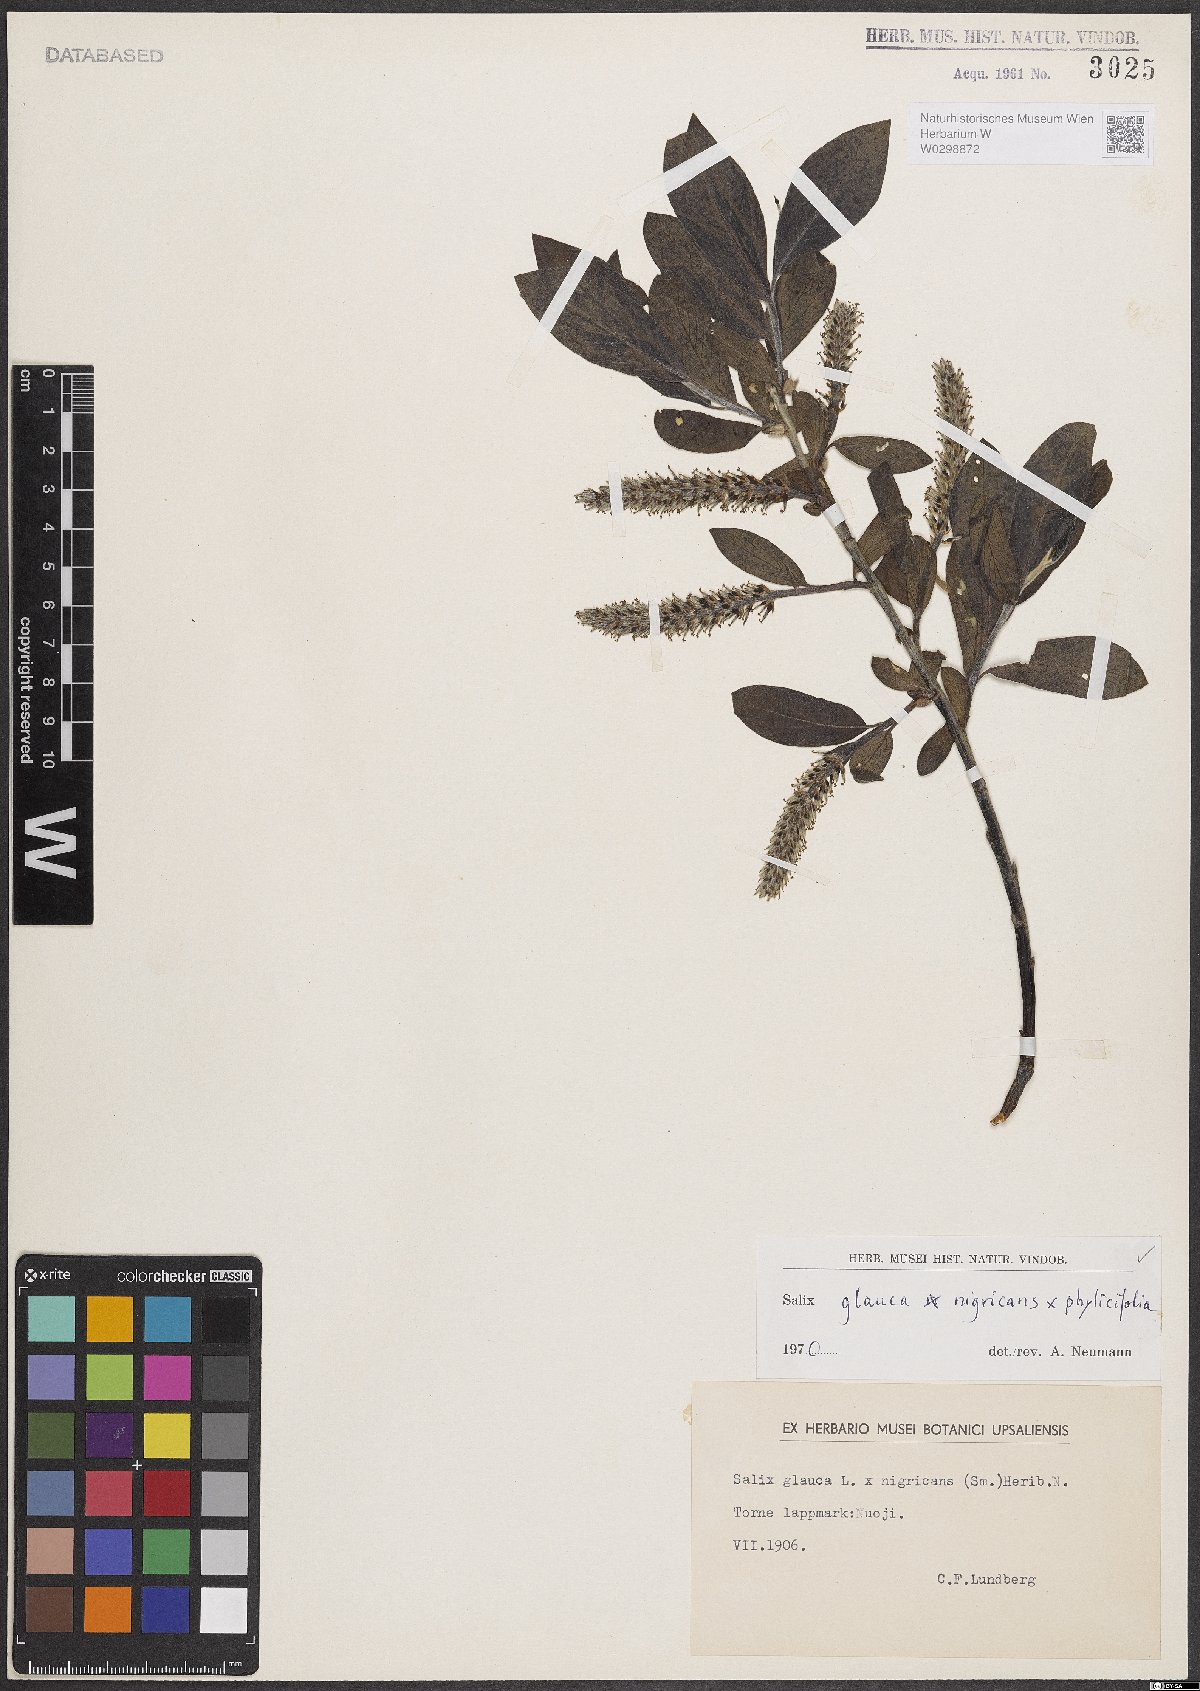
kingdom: Plantae
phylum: Tracheophyta
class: Magnoliopsida
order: Malpighiales
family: Salicaceae
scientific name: Salicaceae
